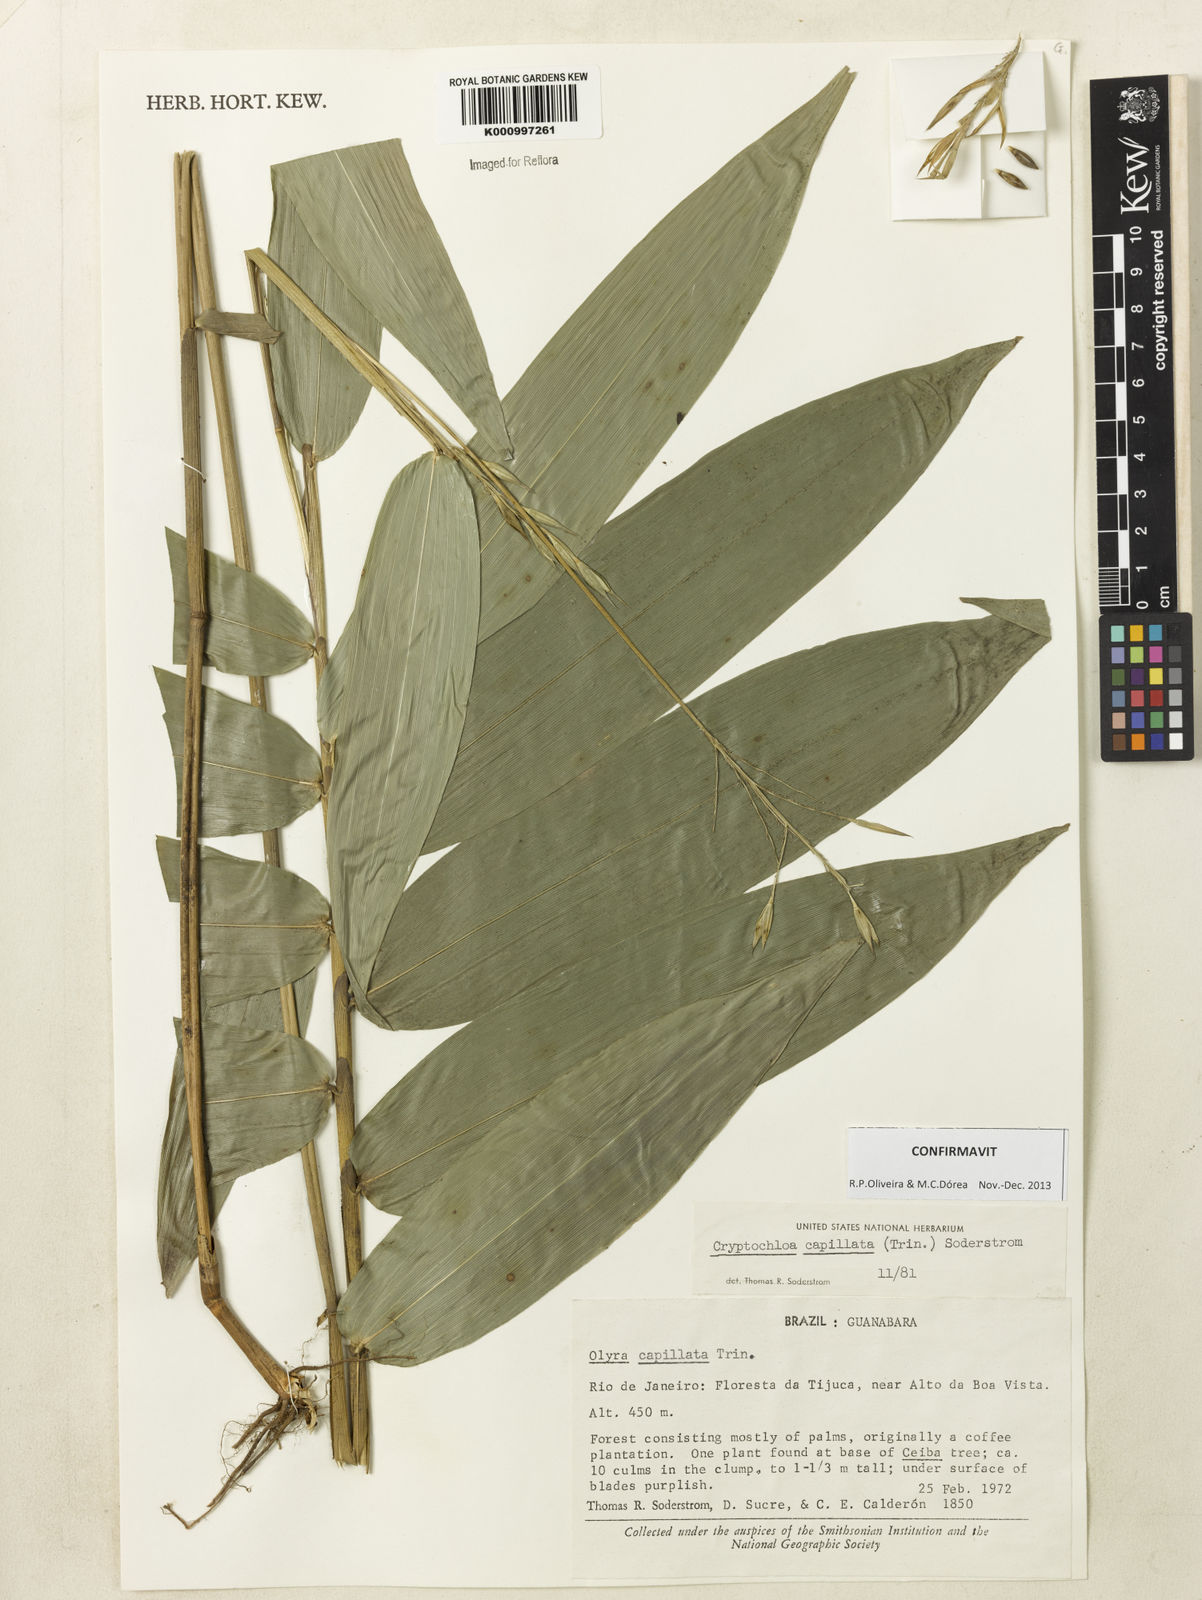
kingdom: Plantae
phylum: Tracheophyta
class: Liliopsida
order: Poales
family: Poaceae
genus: Cryptochloa
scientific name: Cryptochloa capillata
